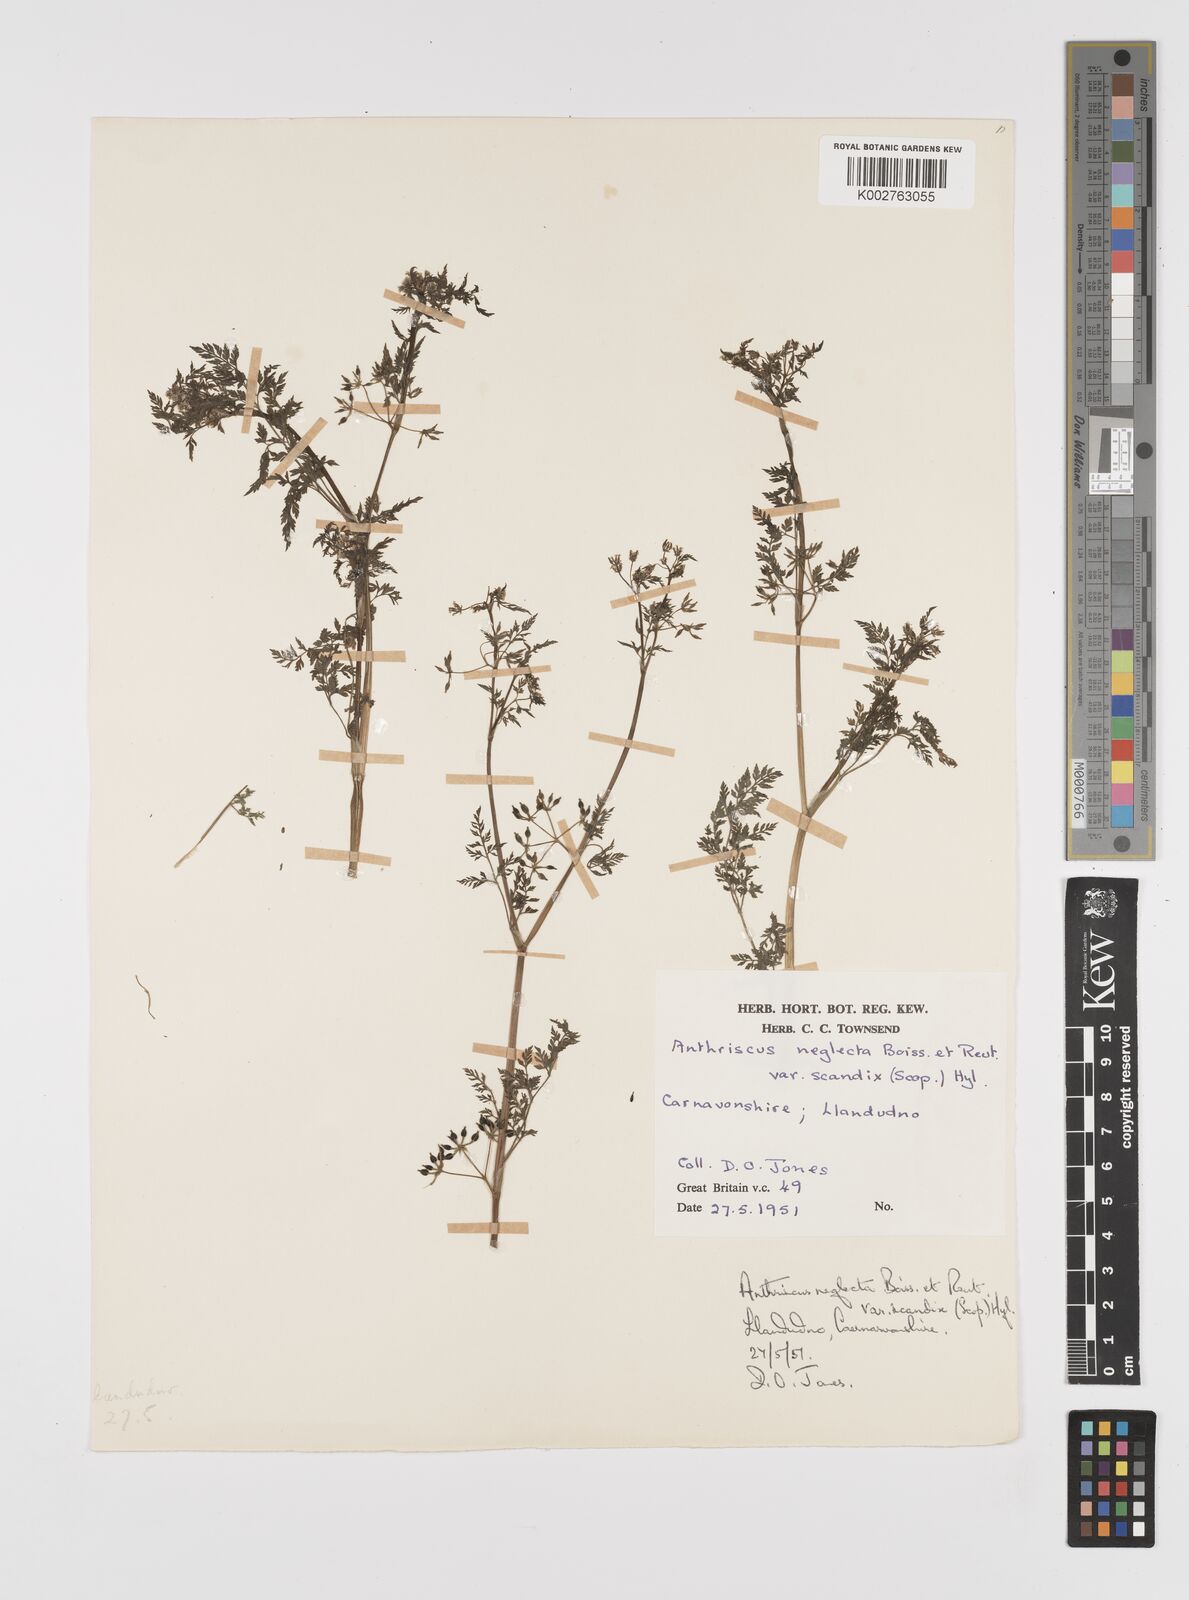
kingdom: Plantae
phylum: Tracheophyta
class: Magnoliopsida
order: Apiales
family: Apiaceae
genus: Anthriscus
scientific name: Anthriscus caucalis
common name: Bur chervil
